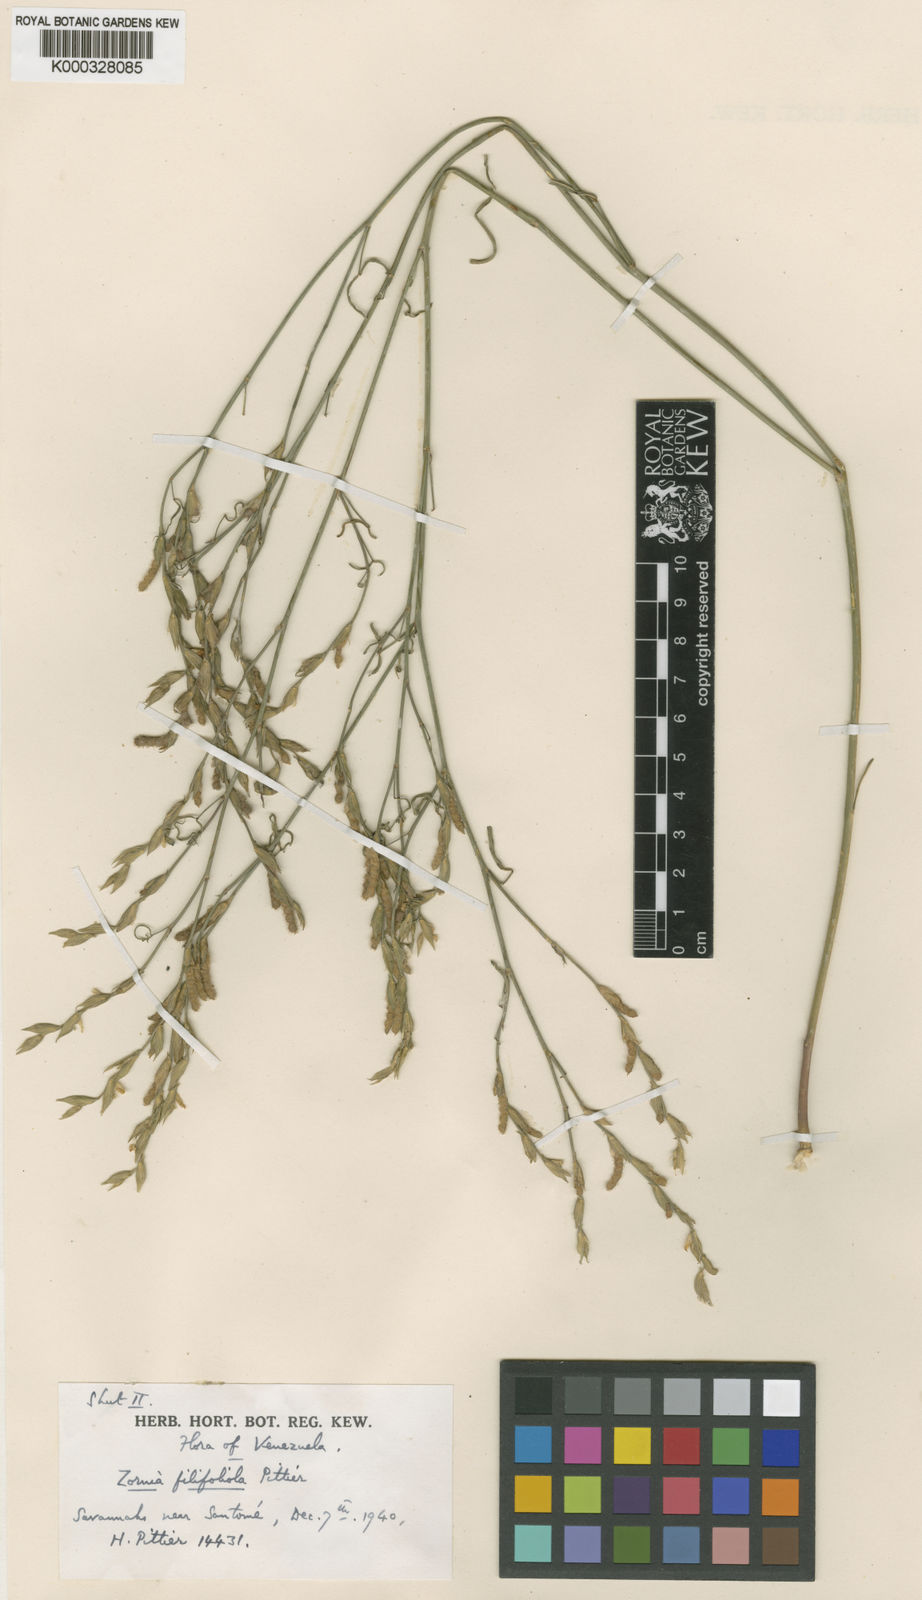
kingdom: Plantae
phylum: Tracheophyta
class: Magnoliopsida
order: Fabales
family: Fabaceae
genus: Zornia
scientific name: Zornia filifoliola
